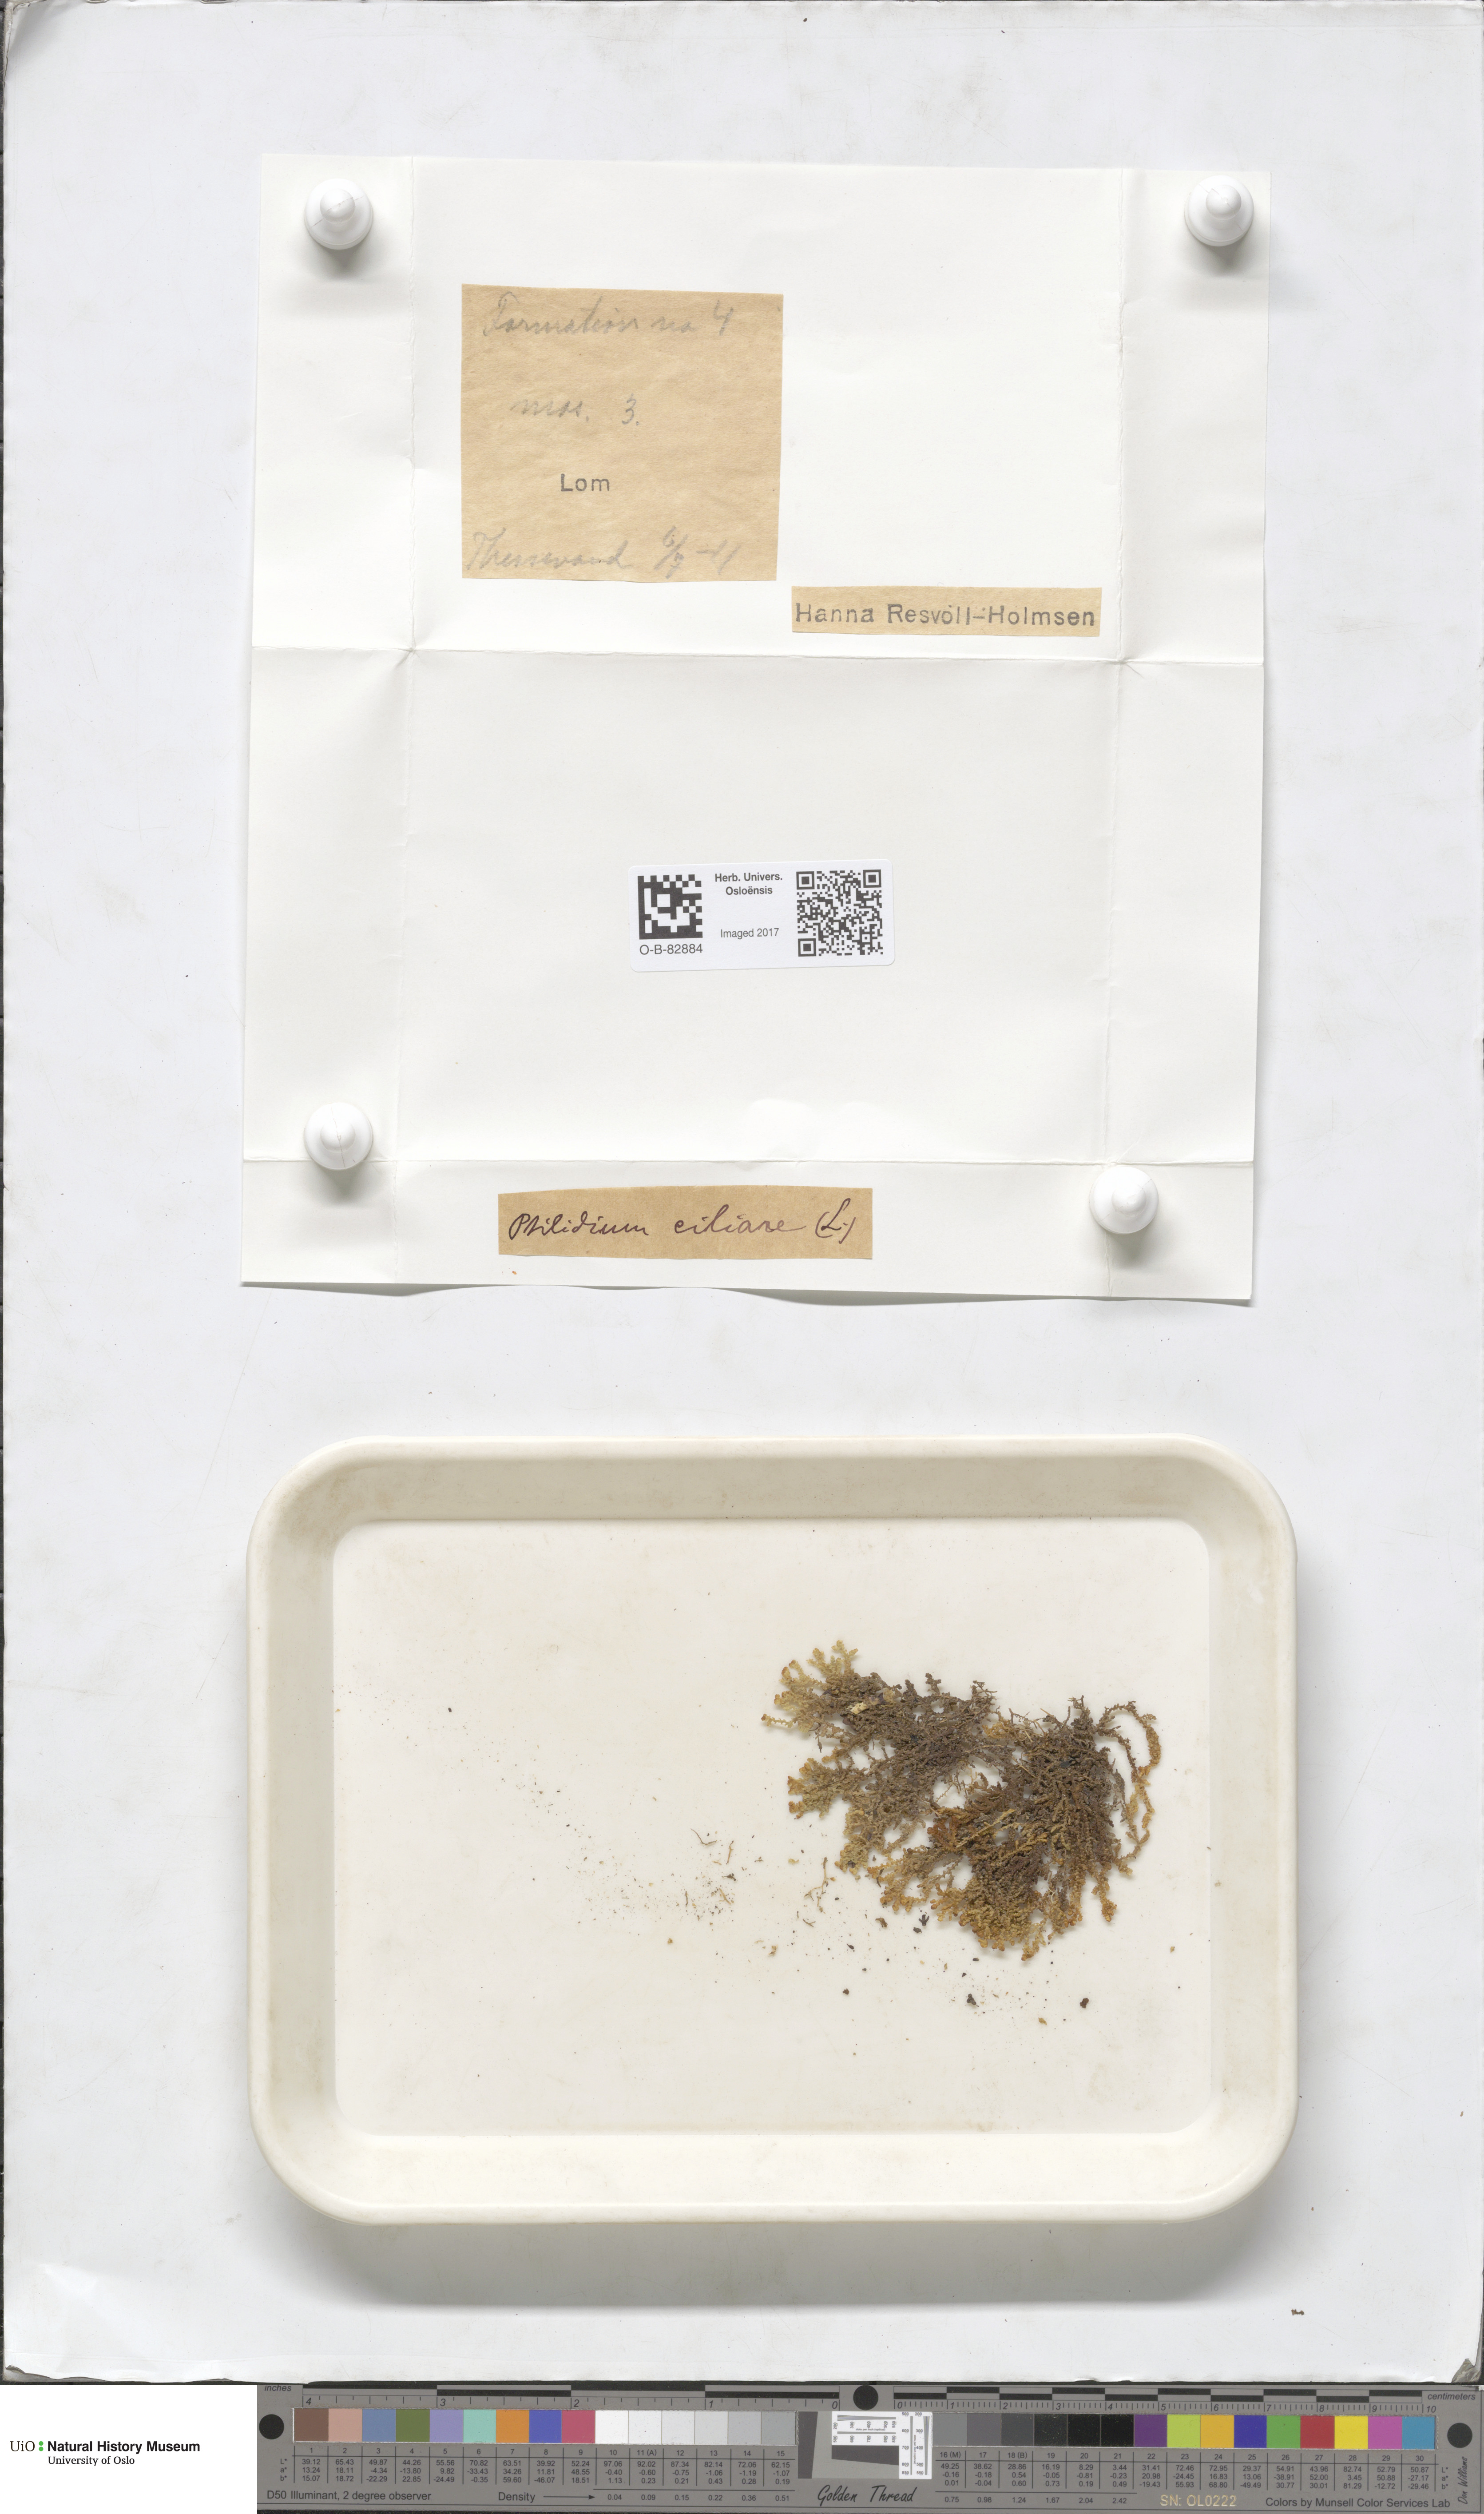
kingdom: Plantae
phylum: Marchantiophyta
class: Jungermanniopsida
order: Ptilidiales
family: Ptilidiaceae
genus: Ptilidium
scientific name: Ptilidium ciliare
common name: Ciliate fringewort
